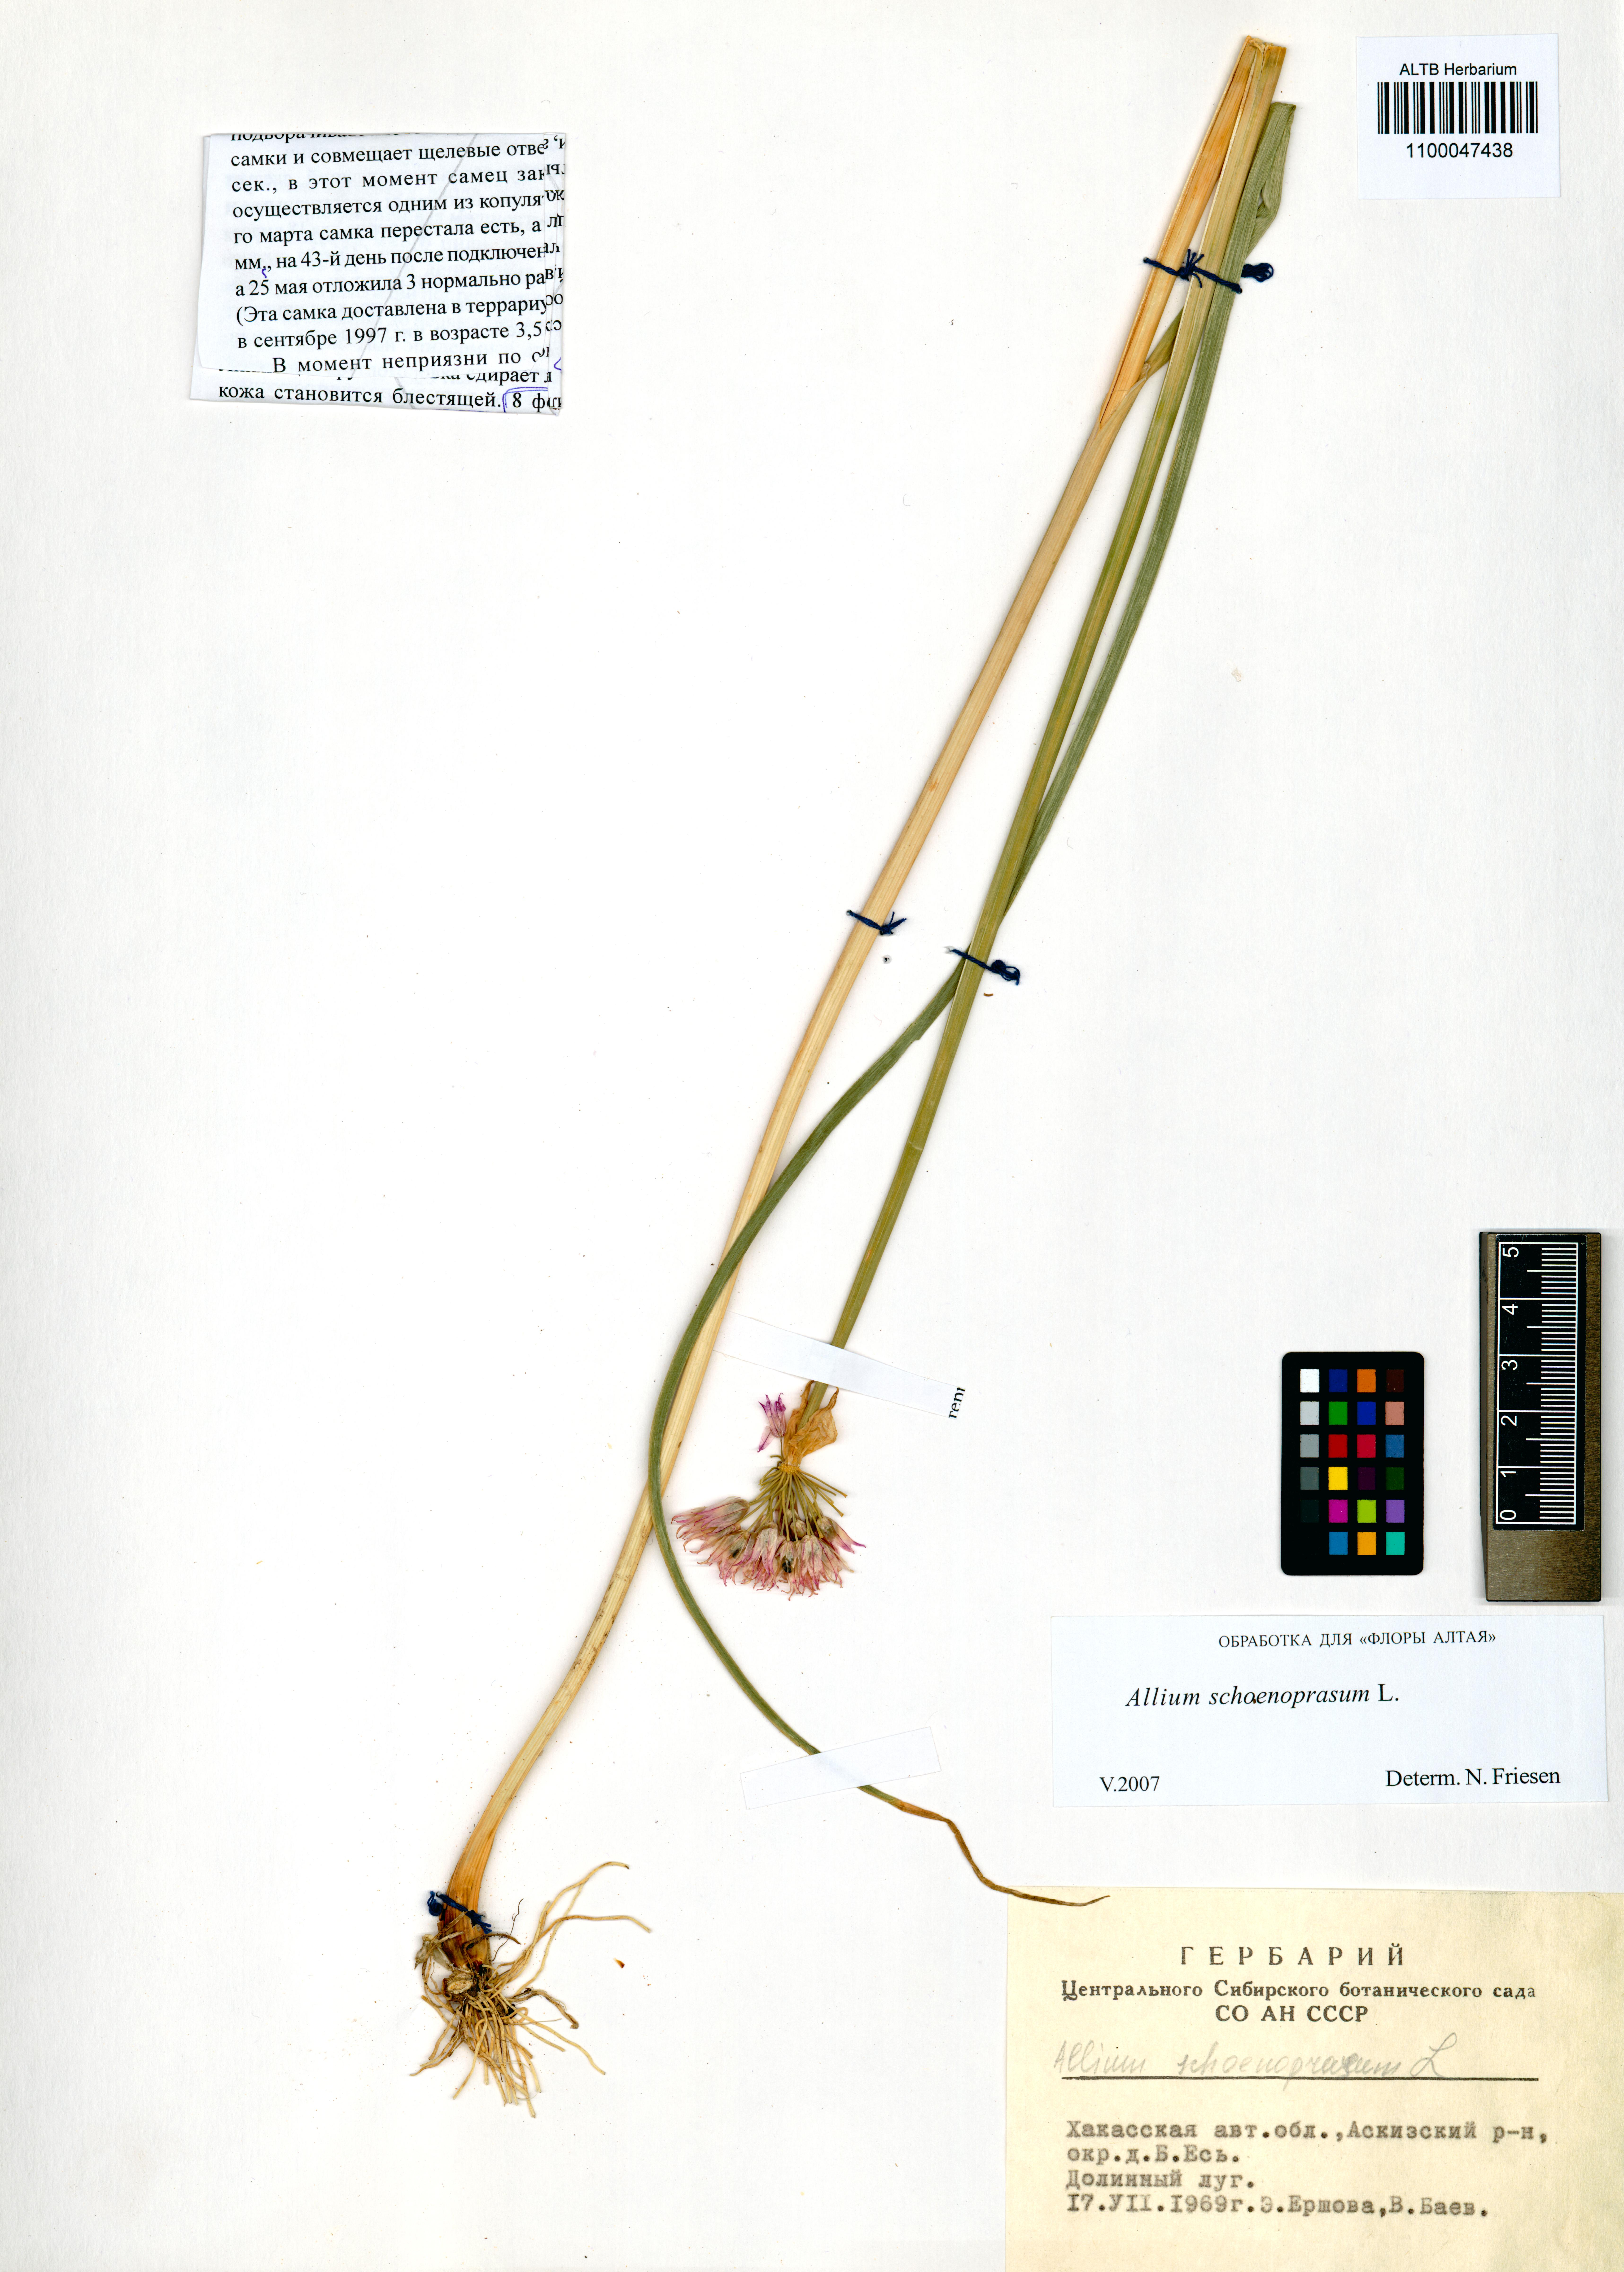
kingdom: Plantae
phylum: Tracheophyta
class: Liliopsida
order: Asparagales
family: Amaryllidaceae
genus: Allium
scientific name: Allium schoenoprasum
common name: Chives
